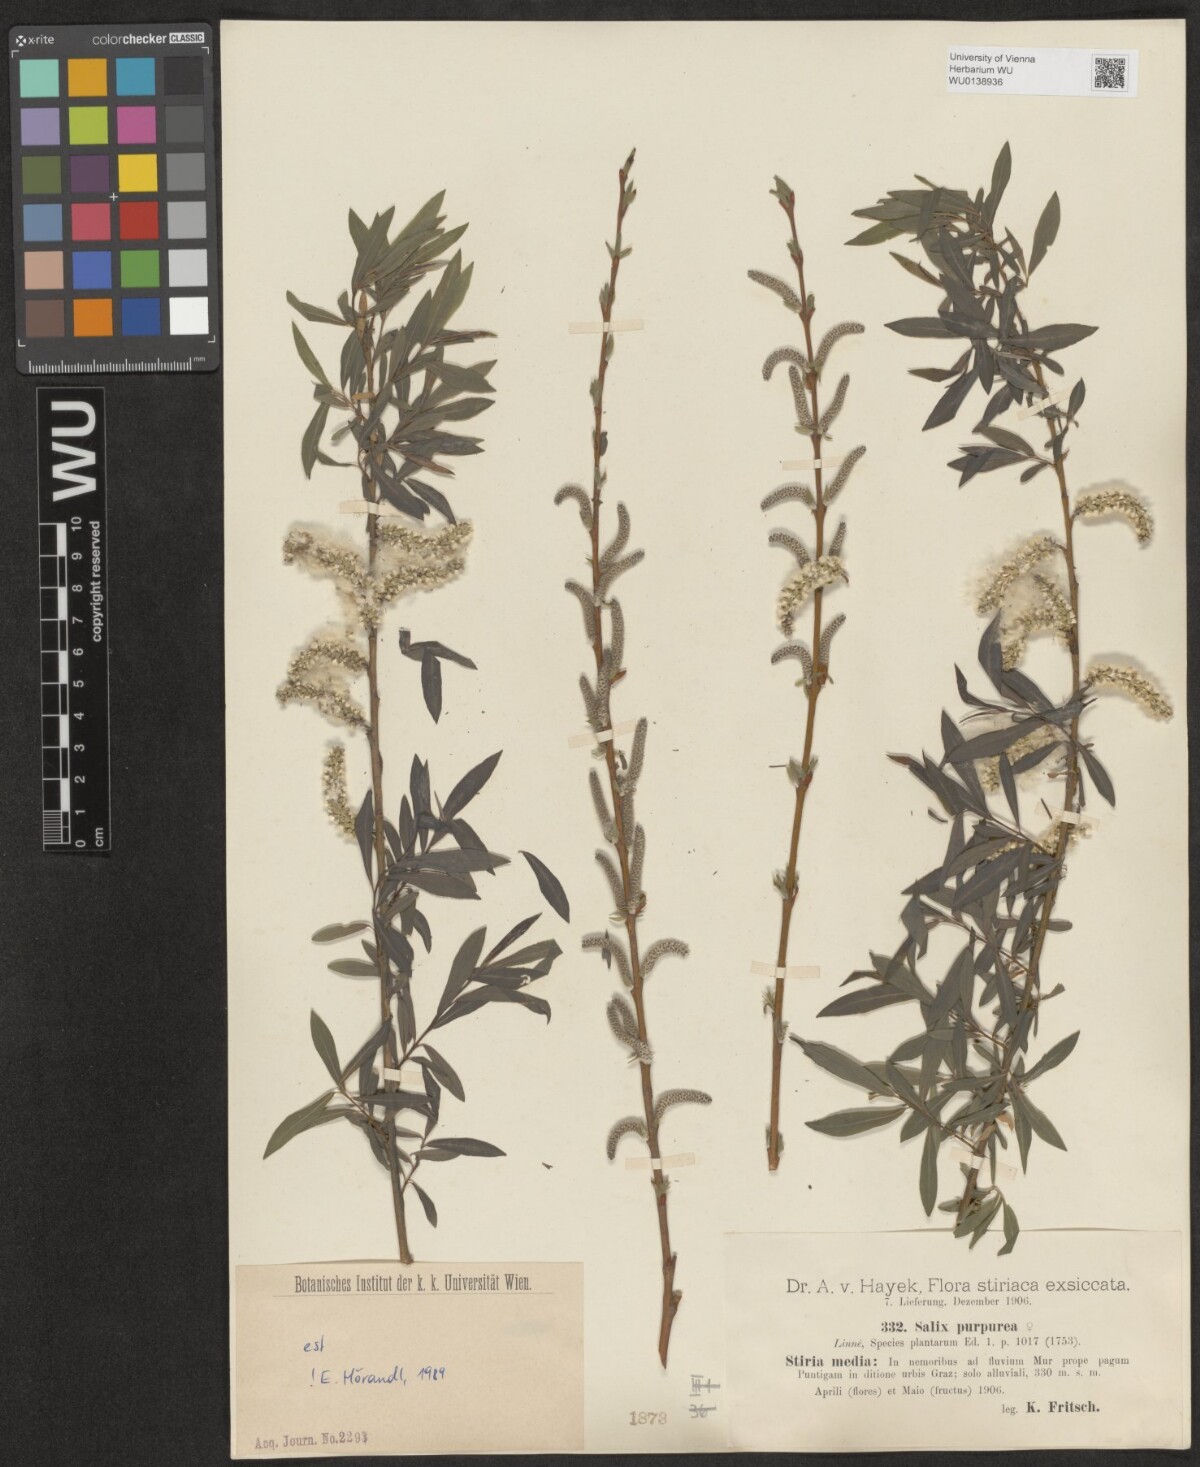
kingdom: Plantae
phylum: Tracheophyta
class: Magnoliopsida
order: Malpighiales
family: Salicaceae
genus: Salix
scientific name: Salix purpurea
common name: Purple willow
